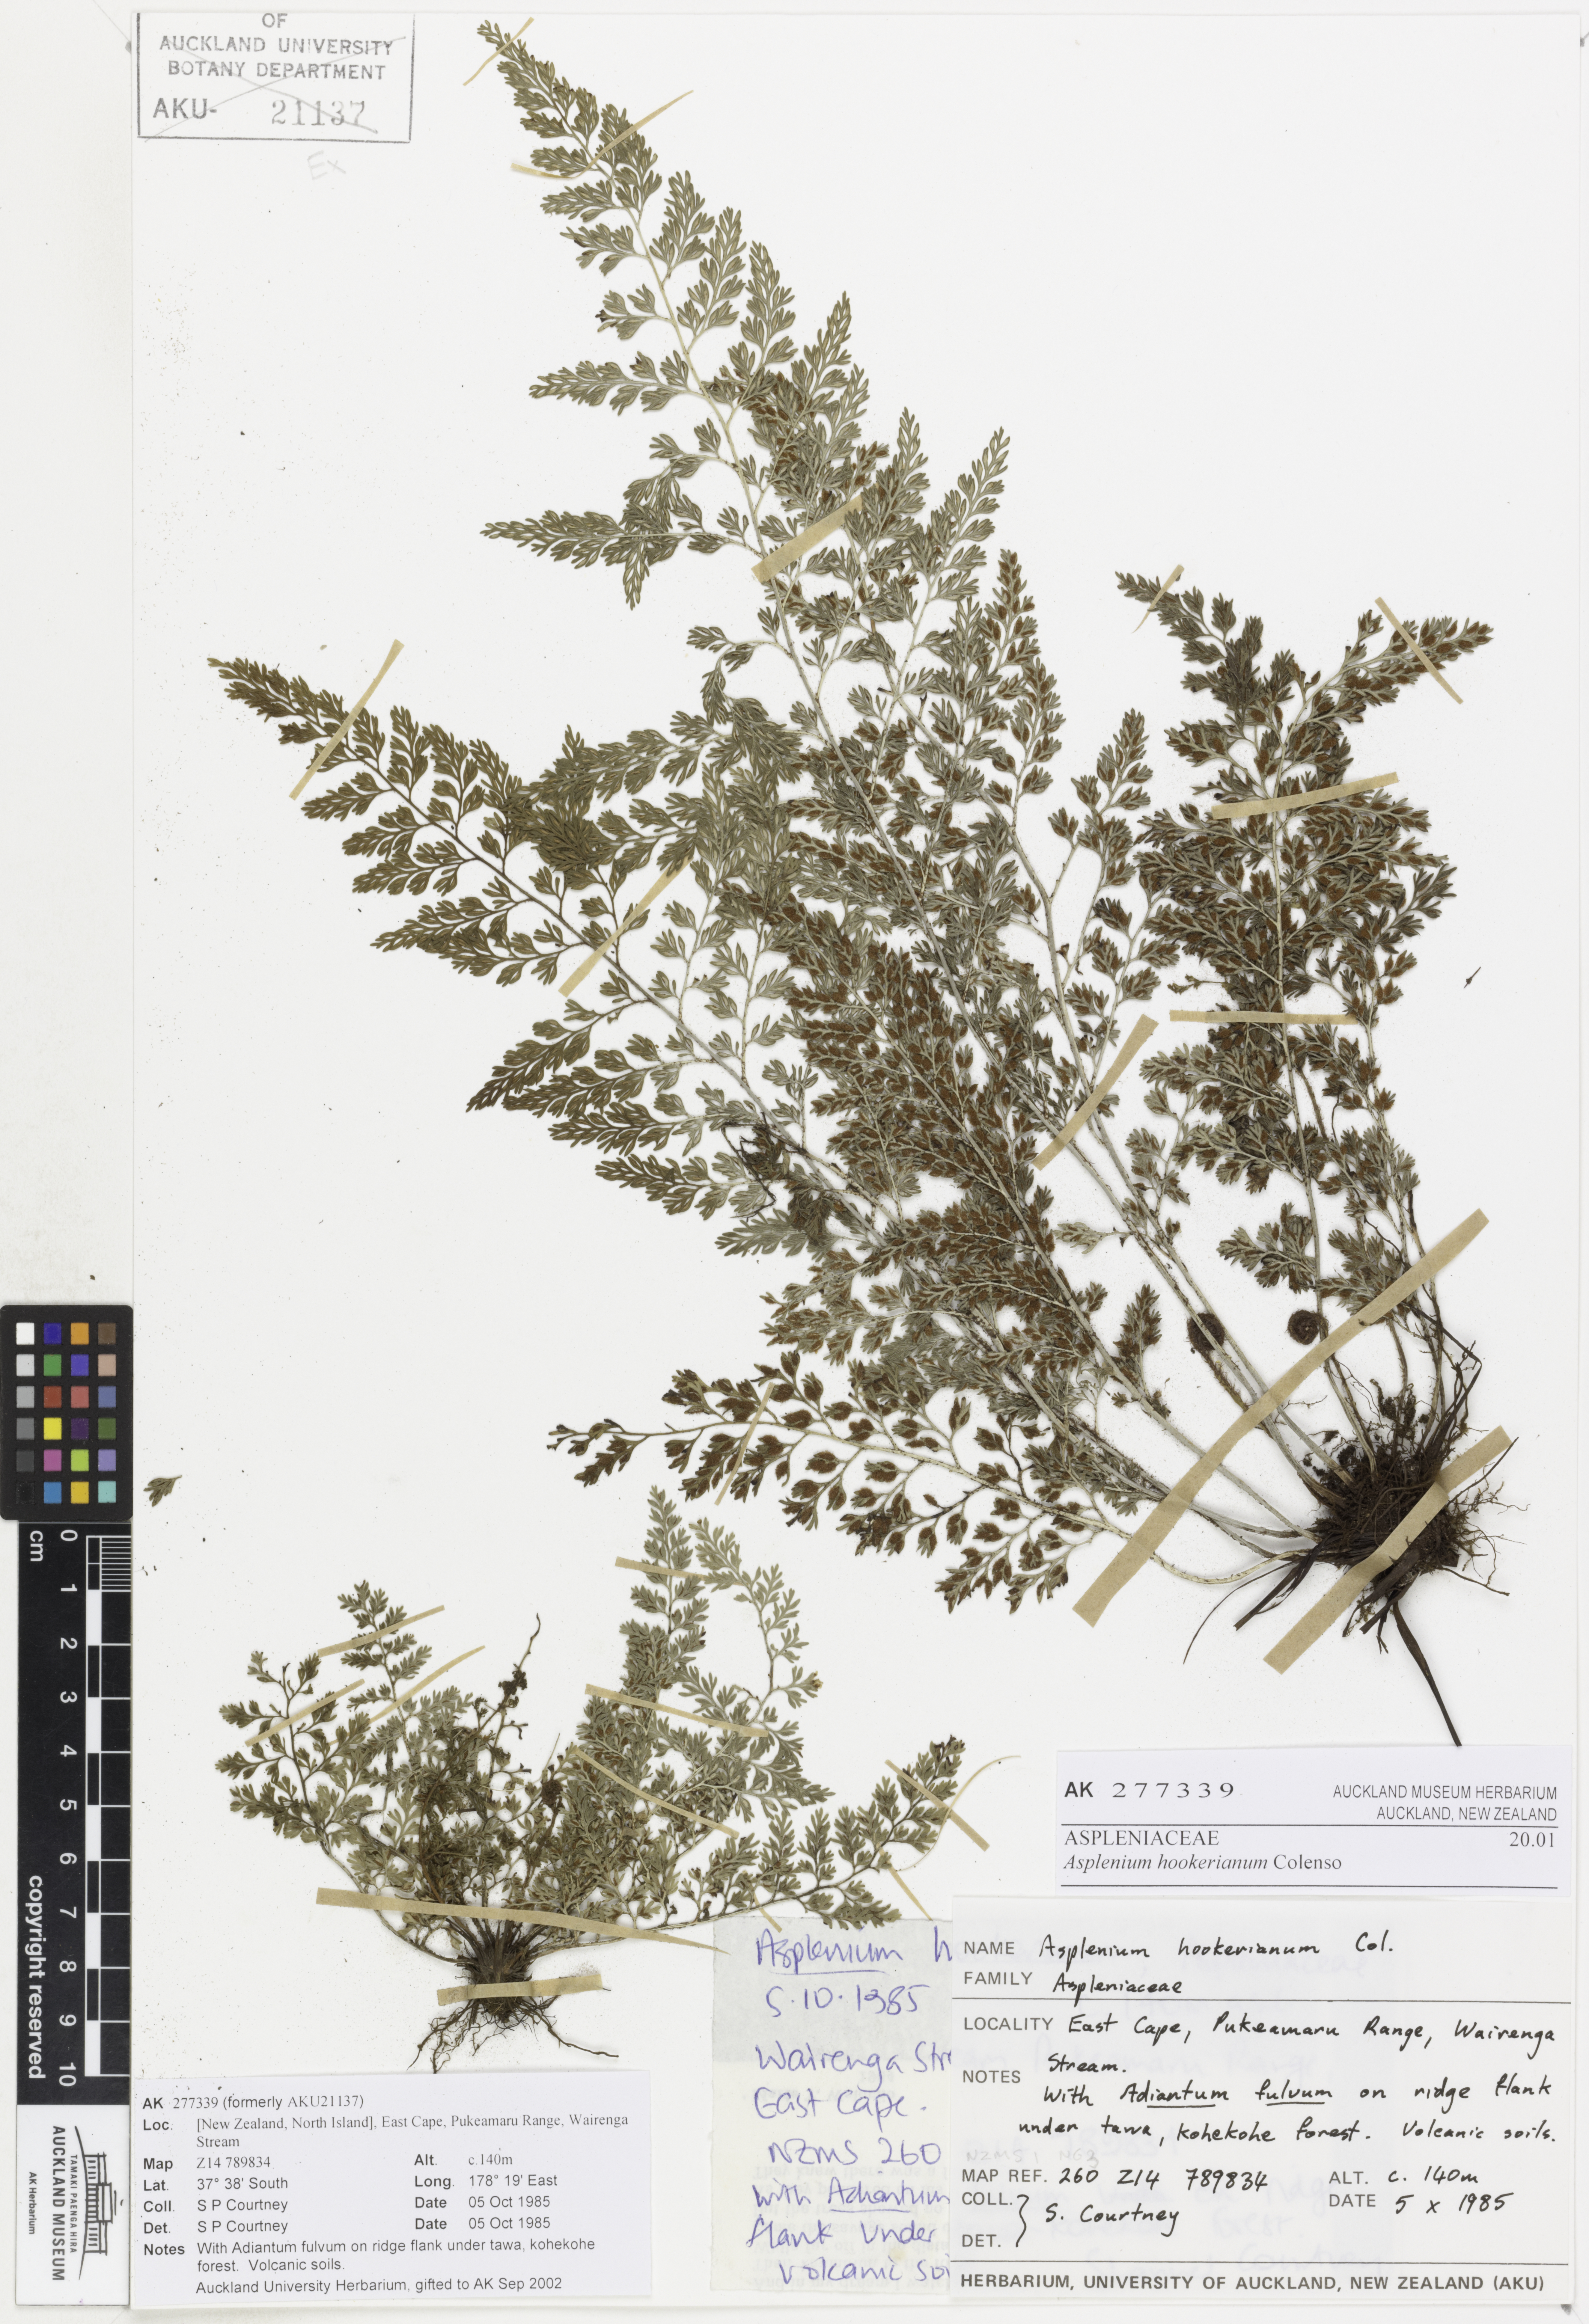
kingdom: Plantae
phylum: Tracheophyta
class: Polypodiopsida
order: Polypodiales
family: Aspleniaceae
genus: Asplenium
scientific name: Asplenium hookerianum
